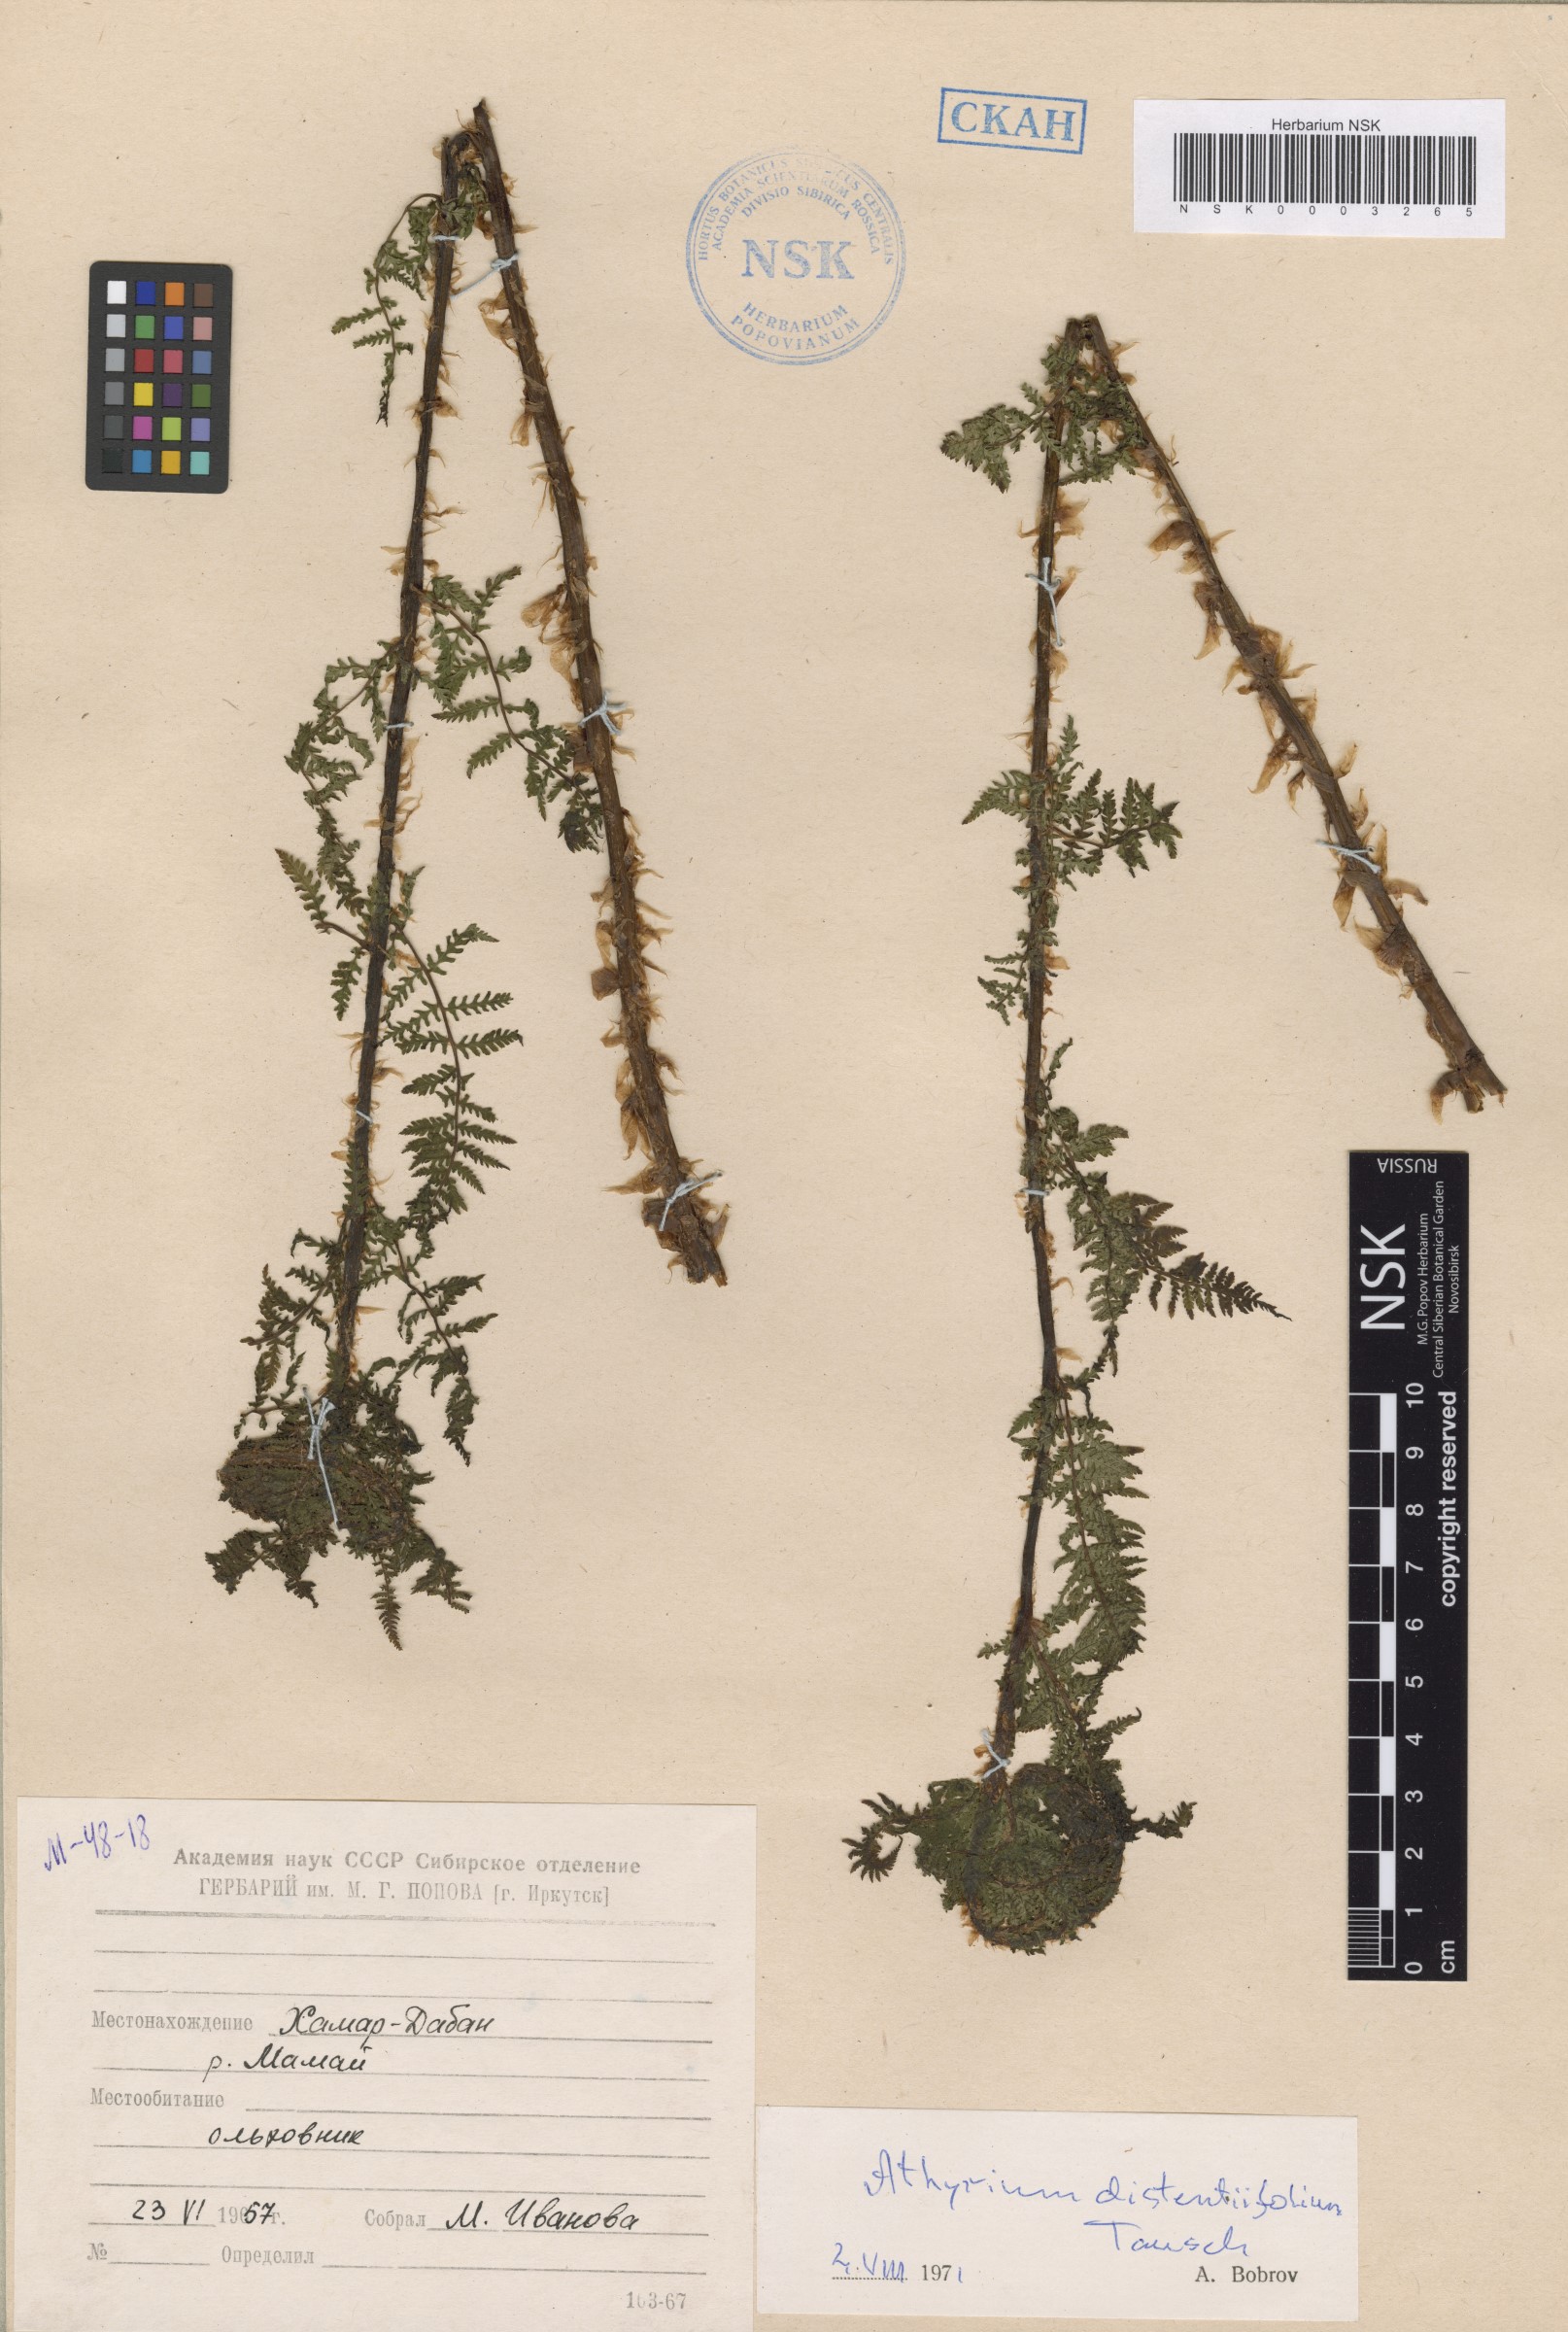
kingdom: Plantae
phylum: Tracheophyta
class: Polypodiopsida
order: Polypodiales
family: Athyriaceae
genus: Pseudathyrium
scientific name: Pseudathyrium alpestre
